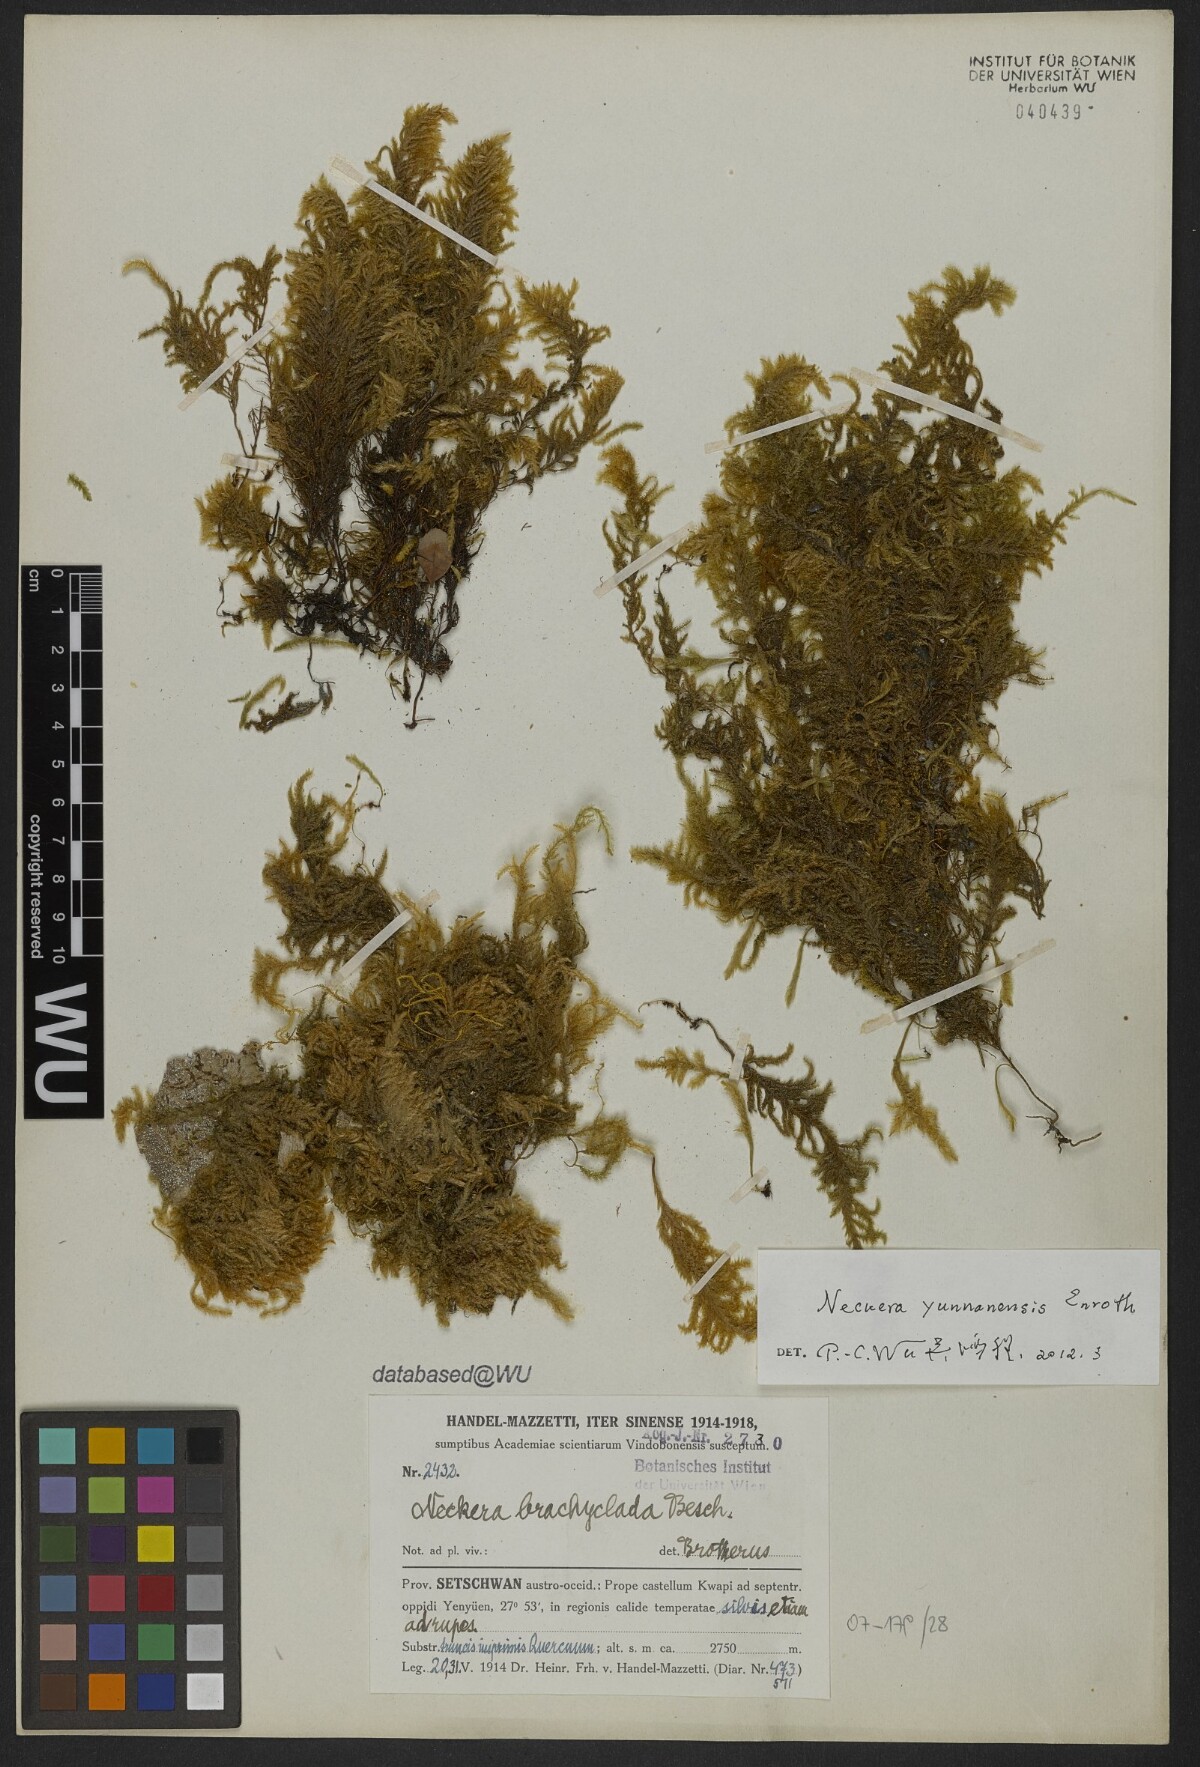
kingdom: Plantae
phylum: Bryophyta
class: Bryopsida
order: Hypnales
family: Neckeraceae
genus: Taiwanobryum
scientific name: Taiwanobryum yunnanense
